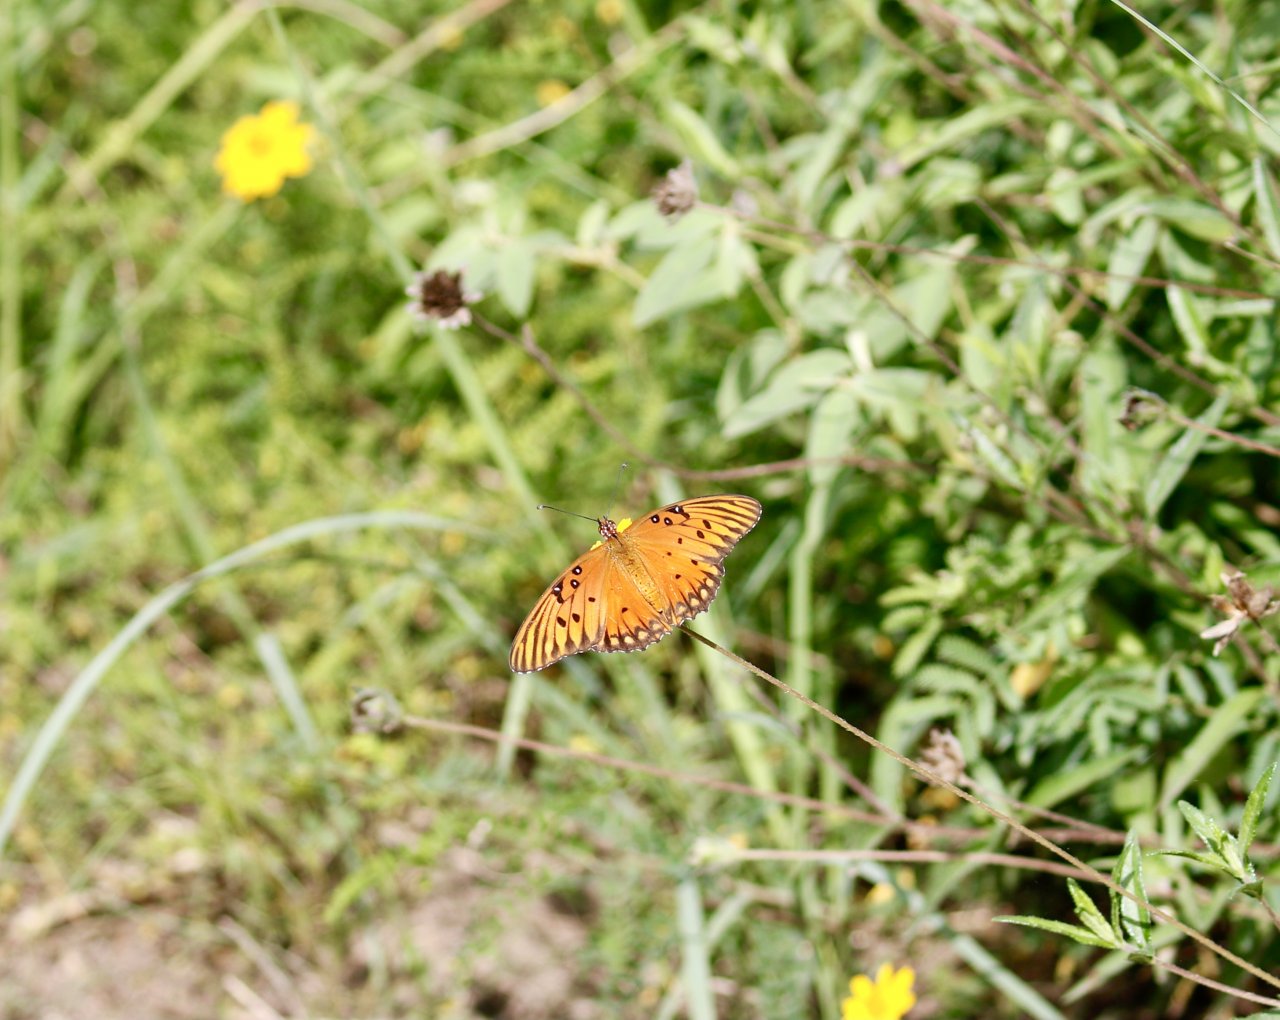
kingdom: Animalia
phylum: Arthropoda
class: Insecta
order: Lepidoptera
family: Nymphalidae
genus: Dione
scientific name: Dione vanillae
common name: Gulf Fritillary
